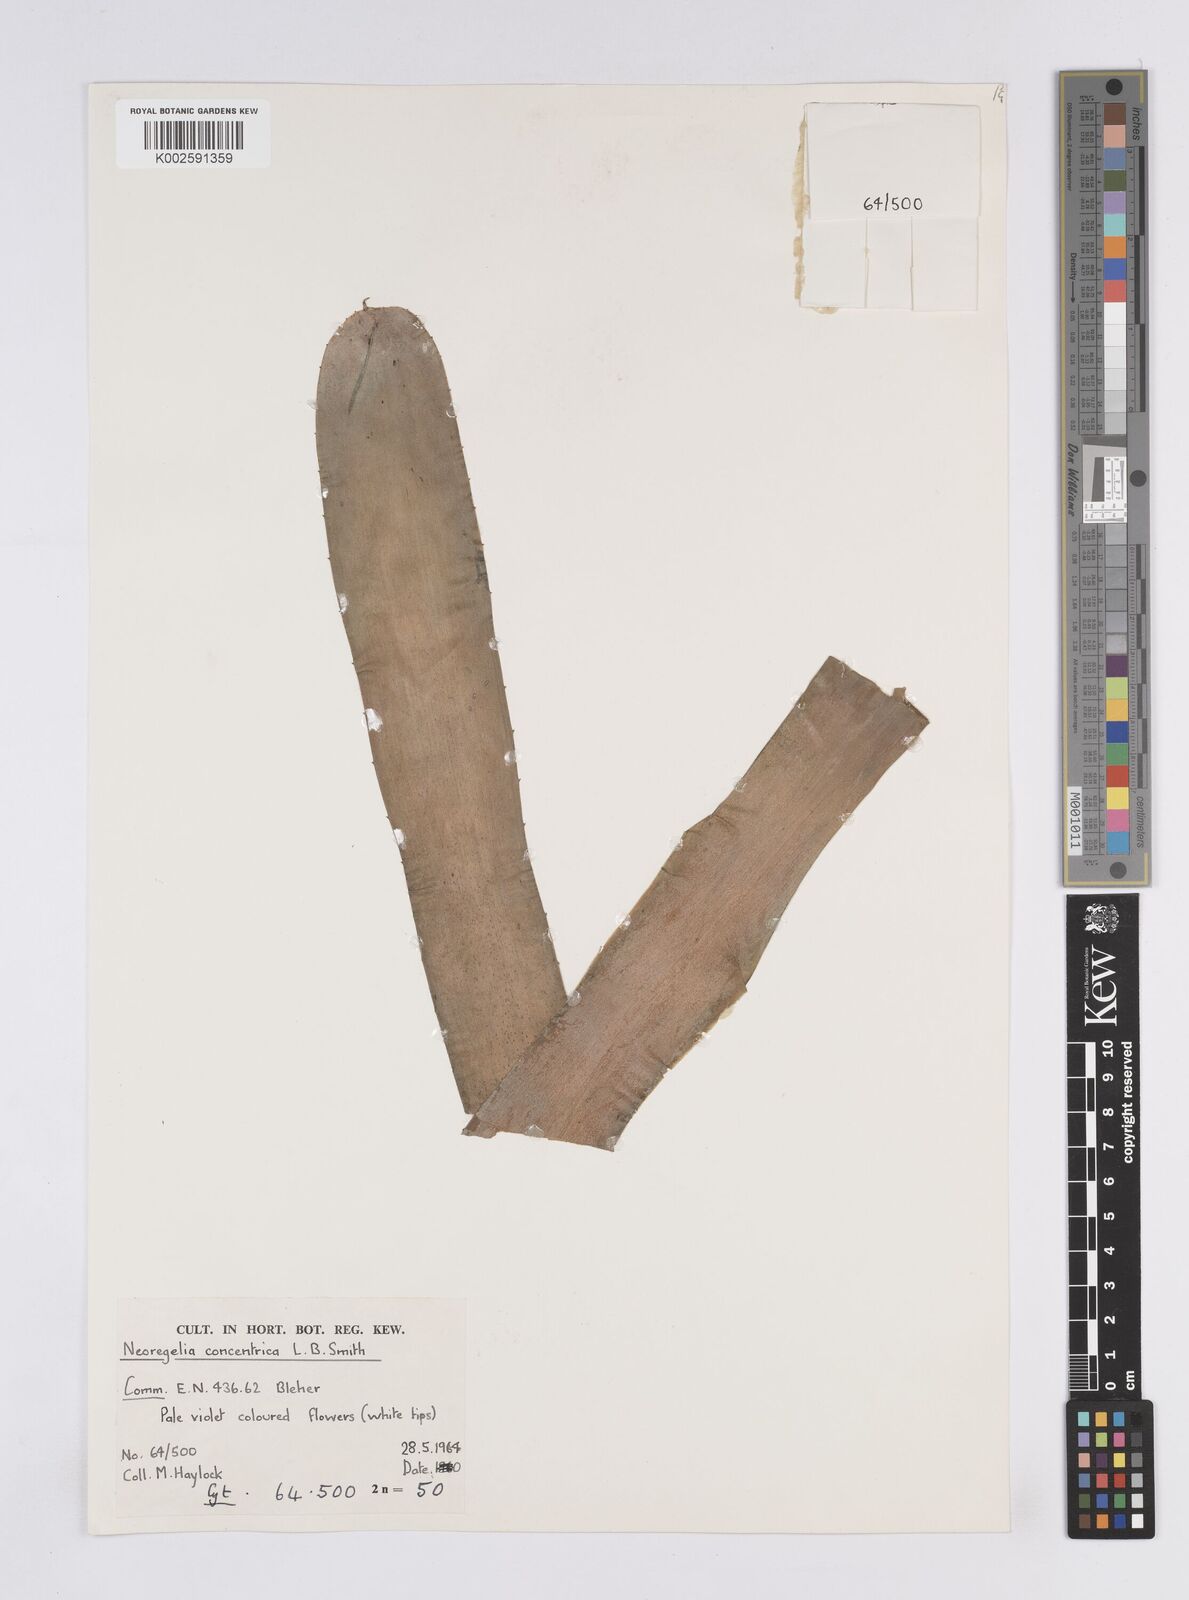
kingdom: Plantae
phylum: Tracheophyta
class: Liliopsida
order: Poales
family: Bromeliaceae
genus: Neoregelia
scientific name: Neoregelia concentrica
